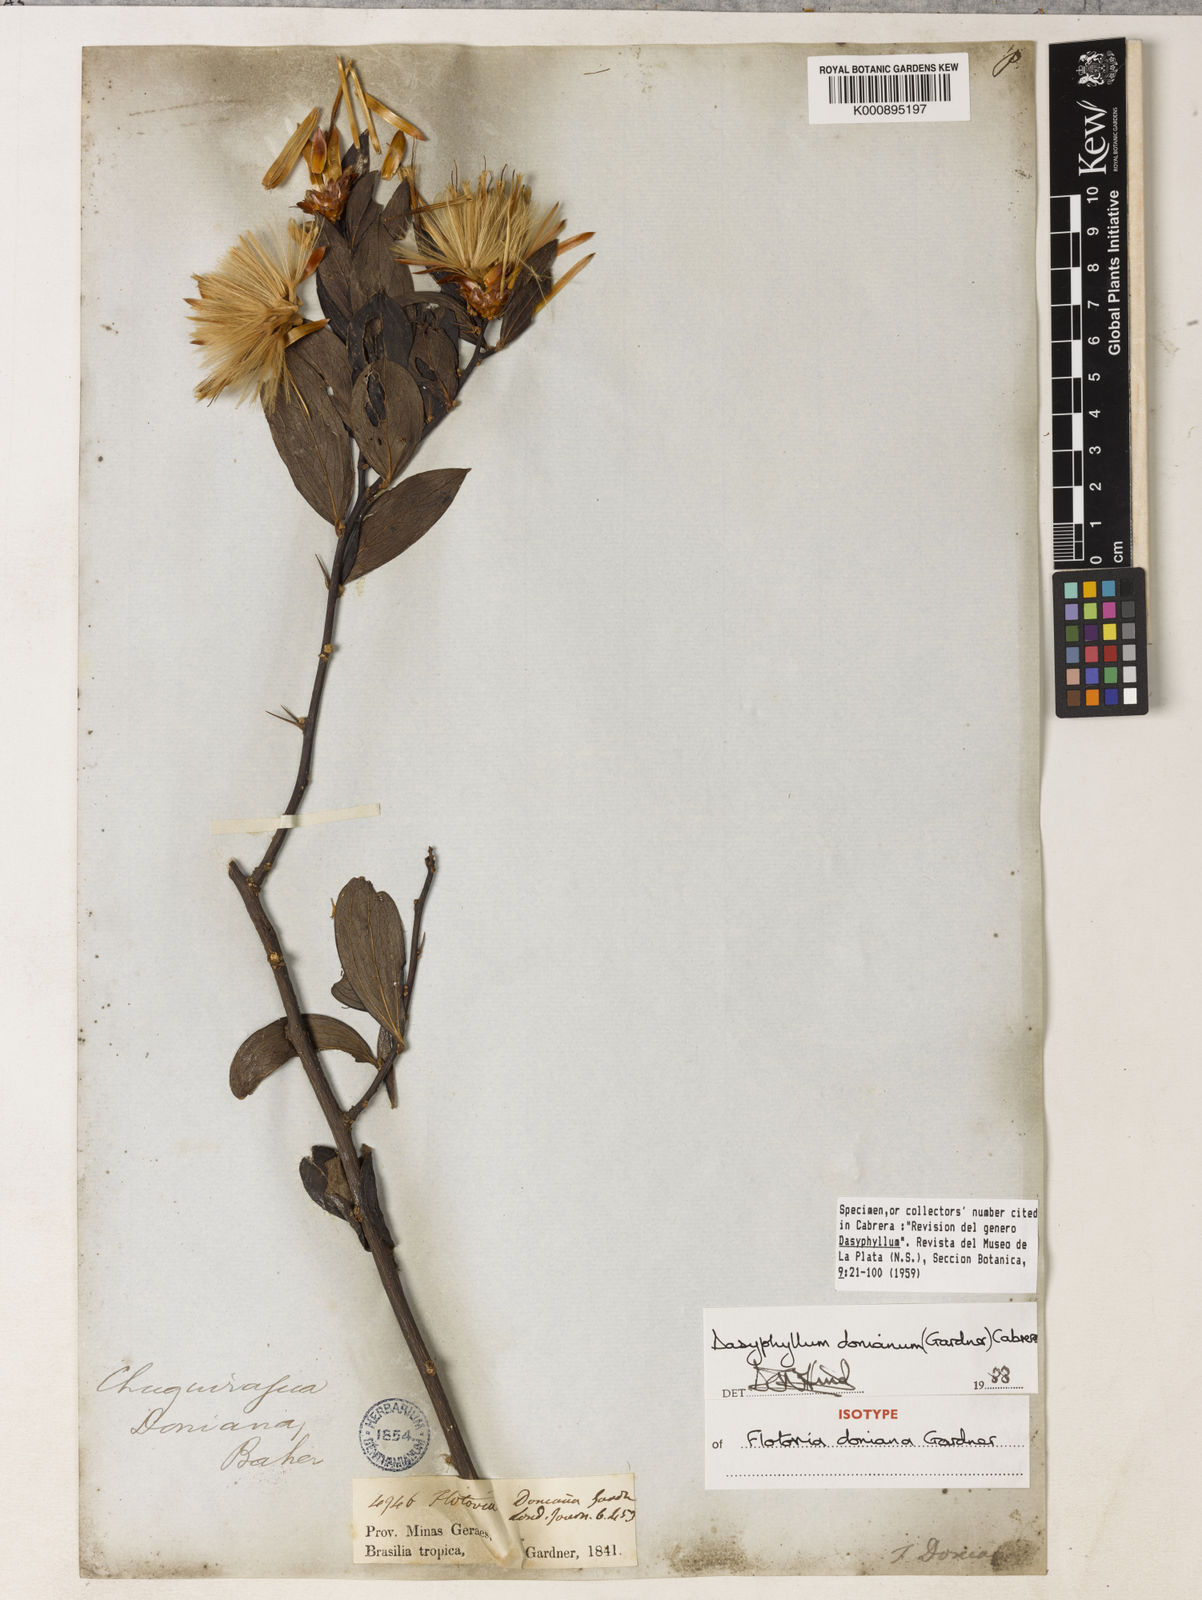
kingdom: Plantae
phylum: Tracheophyta
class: Magnoliopsida
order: Asterales
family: Asteraceae
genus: Dasyphyllum
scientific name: Dasyphyllum donianum
